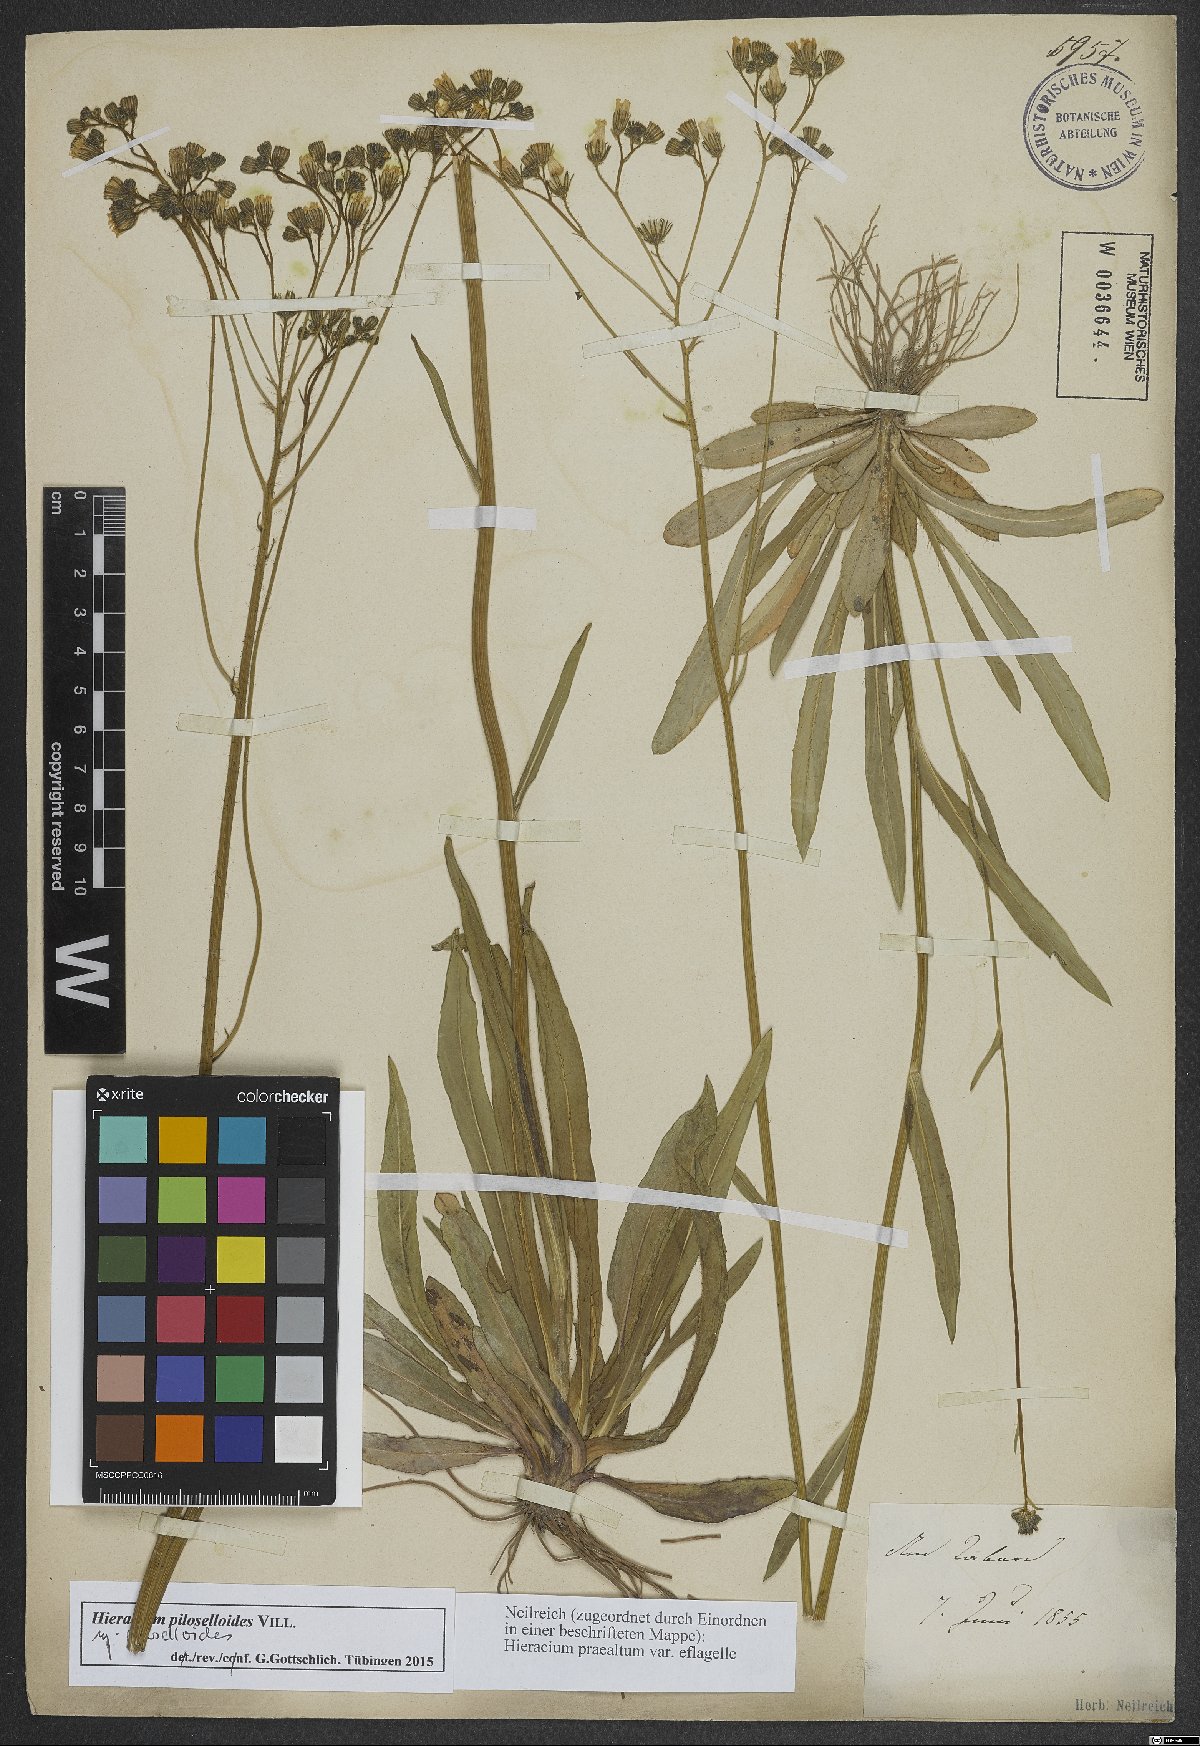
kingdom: Plantae
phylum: Tracheophyta
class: Magnoliopsida
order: Asterales
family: Asteraceae
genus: Pilosella
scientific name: Pilosella piloselloides
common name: Glaucous king-devil
